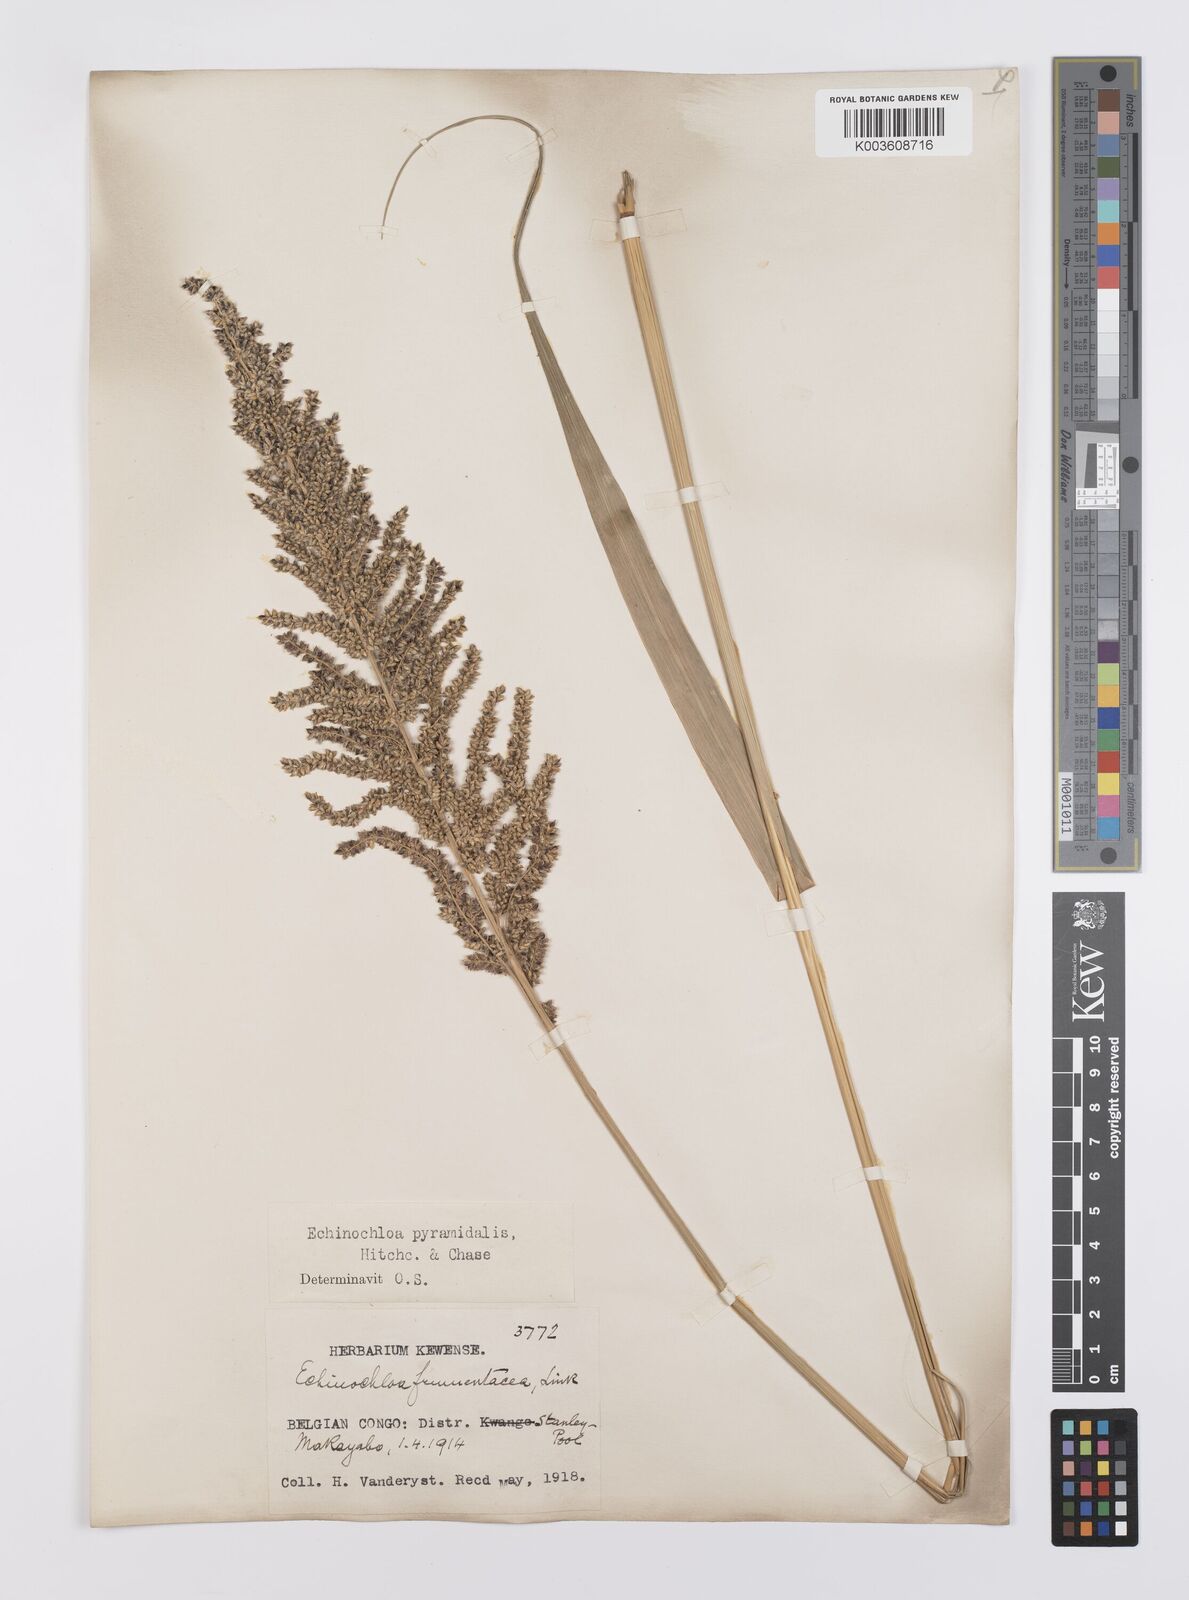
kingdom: Plantae
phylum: Tracheophyta
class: Liliopsida
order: Poales
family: Poaceae
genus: Echinochloa
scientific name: Echinochloa pyramidalis
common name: Antelope grass
